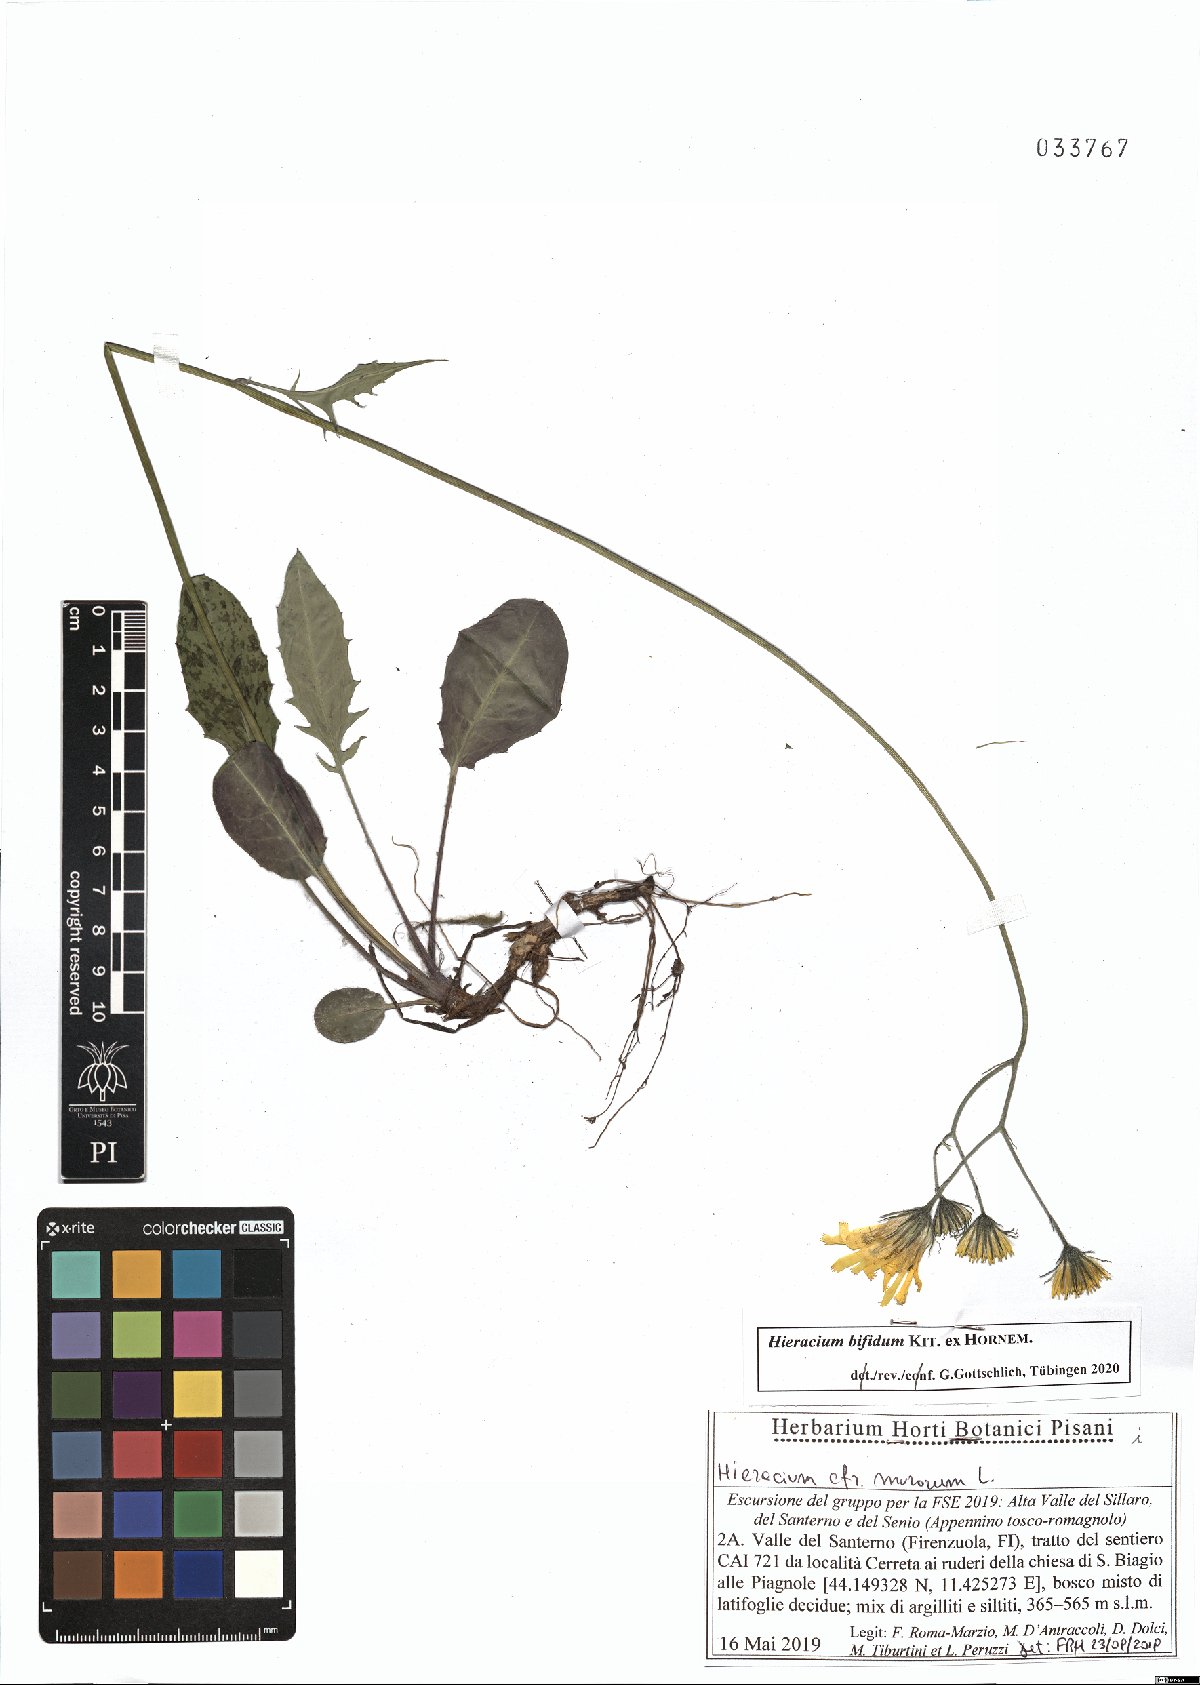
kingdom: Plantae
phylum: Tracheophyta
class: Magnoliopsida
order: Asterales
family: Asteraceae
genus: Hieracium
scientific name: Hieracium bifidum
